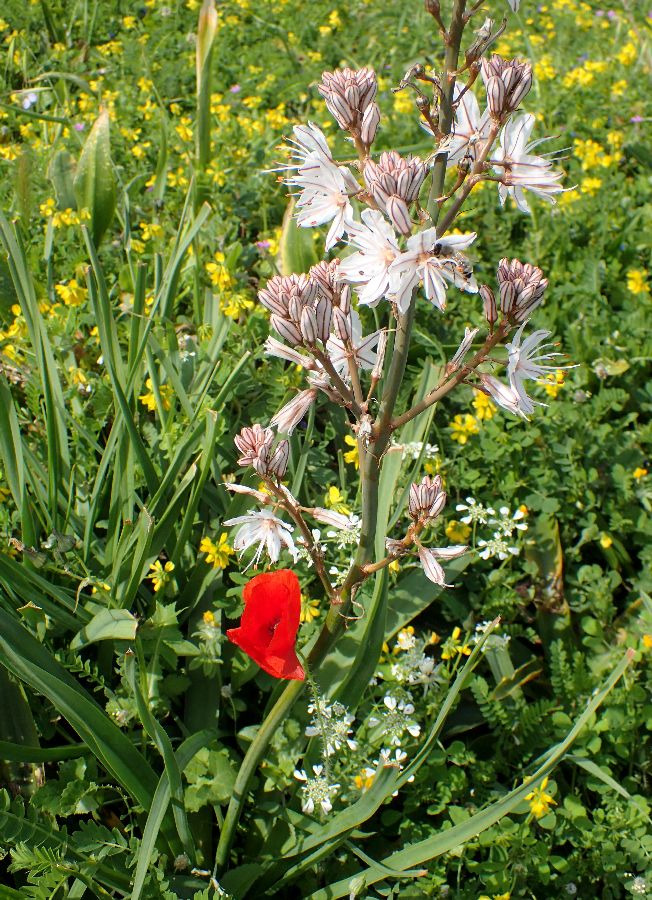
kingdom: Plantae
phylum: Tracheophyta
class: Liliopsida
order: Asparagales
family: Asphodelaceae
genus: Asphodelus
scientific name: Asphodelus ramosus
